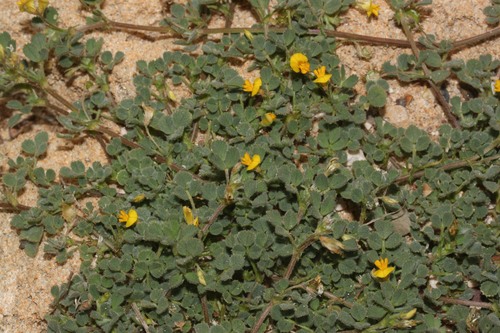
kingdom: Plantae
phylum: Tracheophyta
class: Magnoliopsida
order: Fabales
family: Fabaceae
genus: Medicago
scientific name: Medicago littoralis
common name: Shore medick
